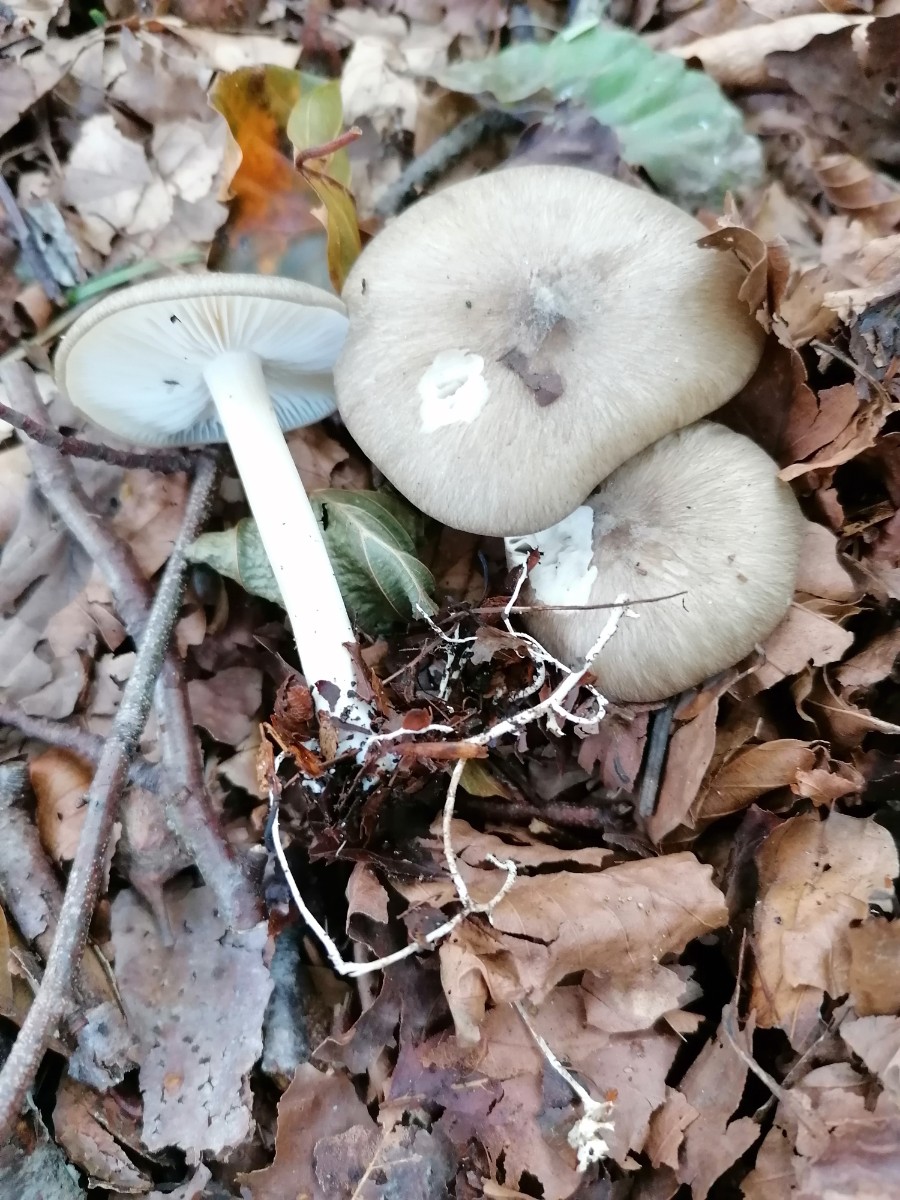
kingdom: Fungi
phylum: Basidiomycota
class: Agaricomycetes
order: Agaricales
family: Tricholomataceae
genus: Megacollybia
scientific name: Megacollybia platyphylla
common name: bredbladet væbnerhat
